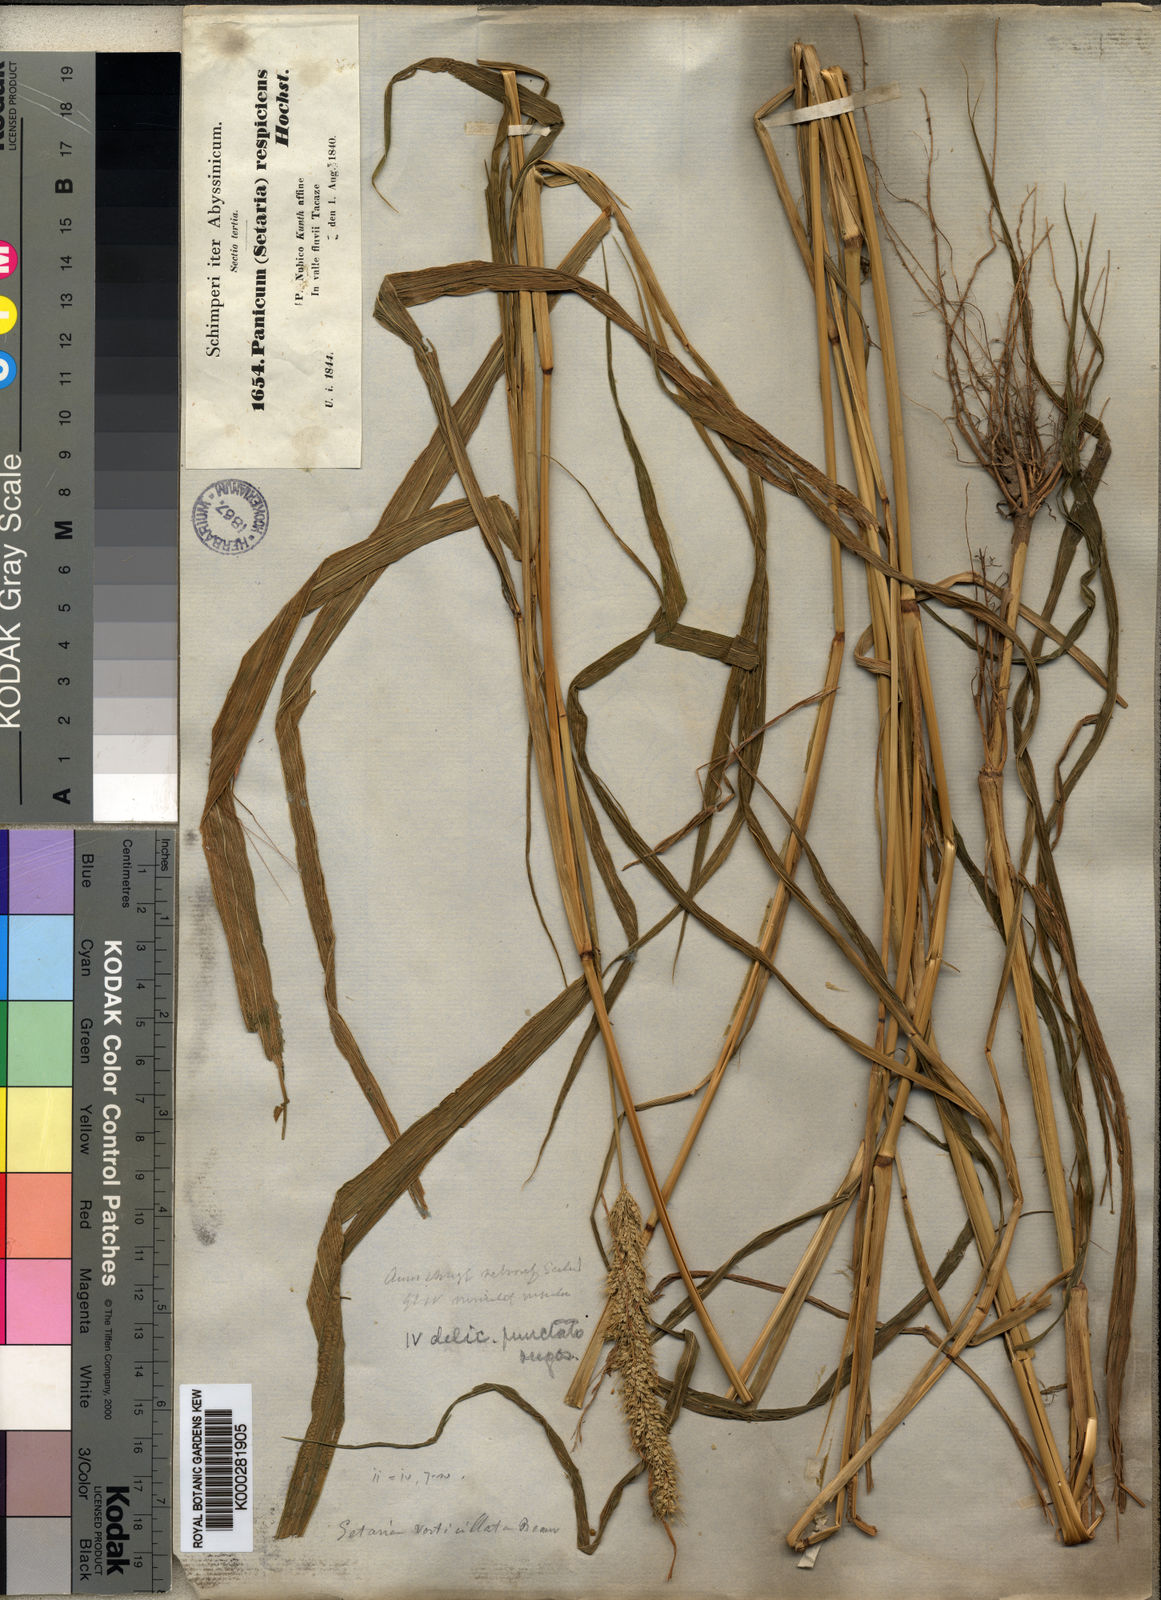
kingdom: Plantae
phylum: Tracheophyta
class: Liliopsida
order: Poales
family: Poaceae
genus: Setaria
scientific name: Setaria verticillata
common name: Hooked bristlegrass
